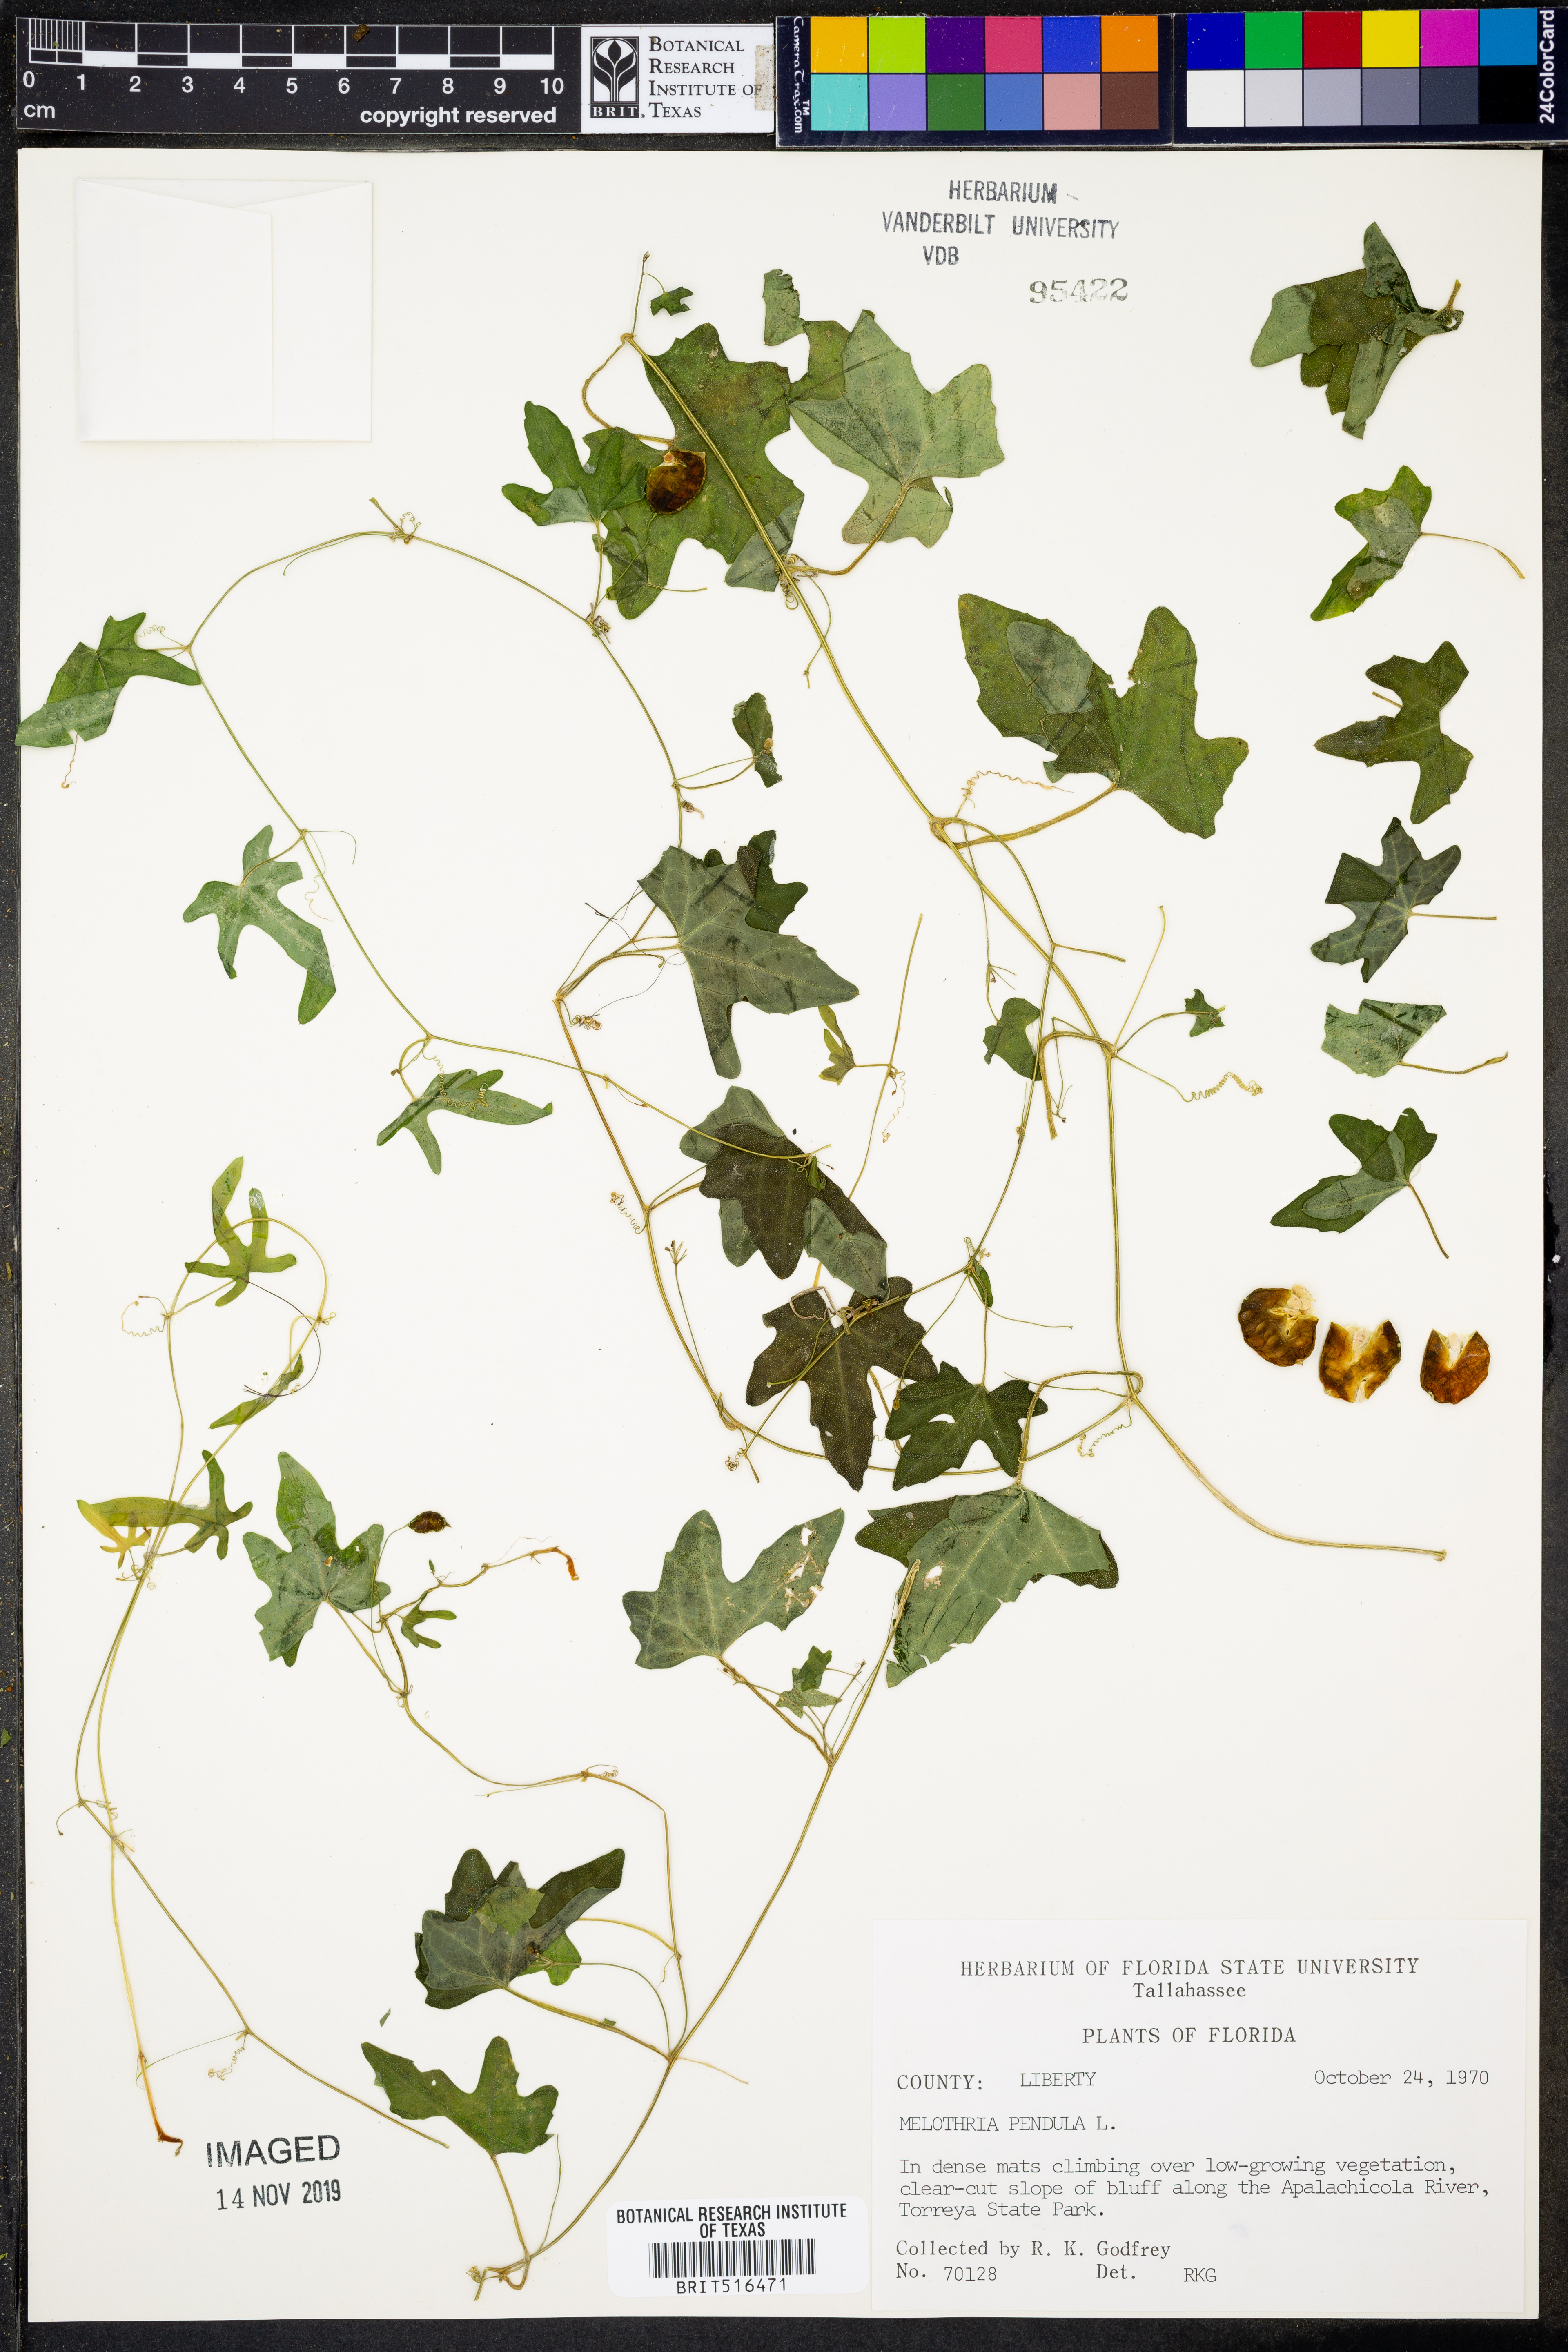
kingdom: Plantae
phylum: Tracheophyta
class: Magnoliopsida
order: Cucurbitales
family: Cucurbitaceae
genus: Melothria
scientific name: Melothria pendula
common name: Creeping-cucumber
